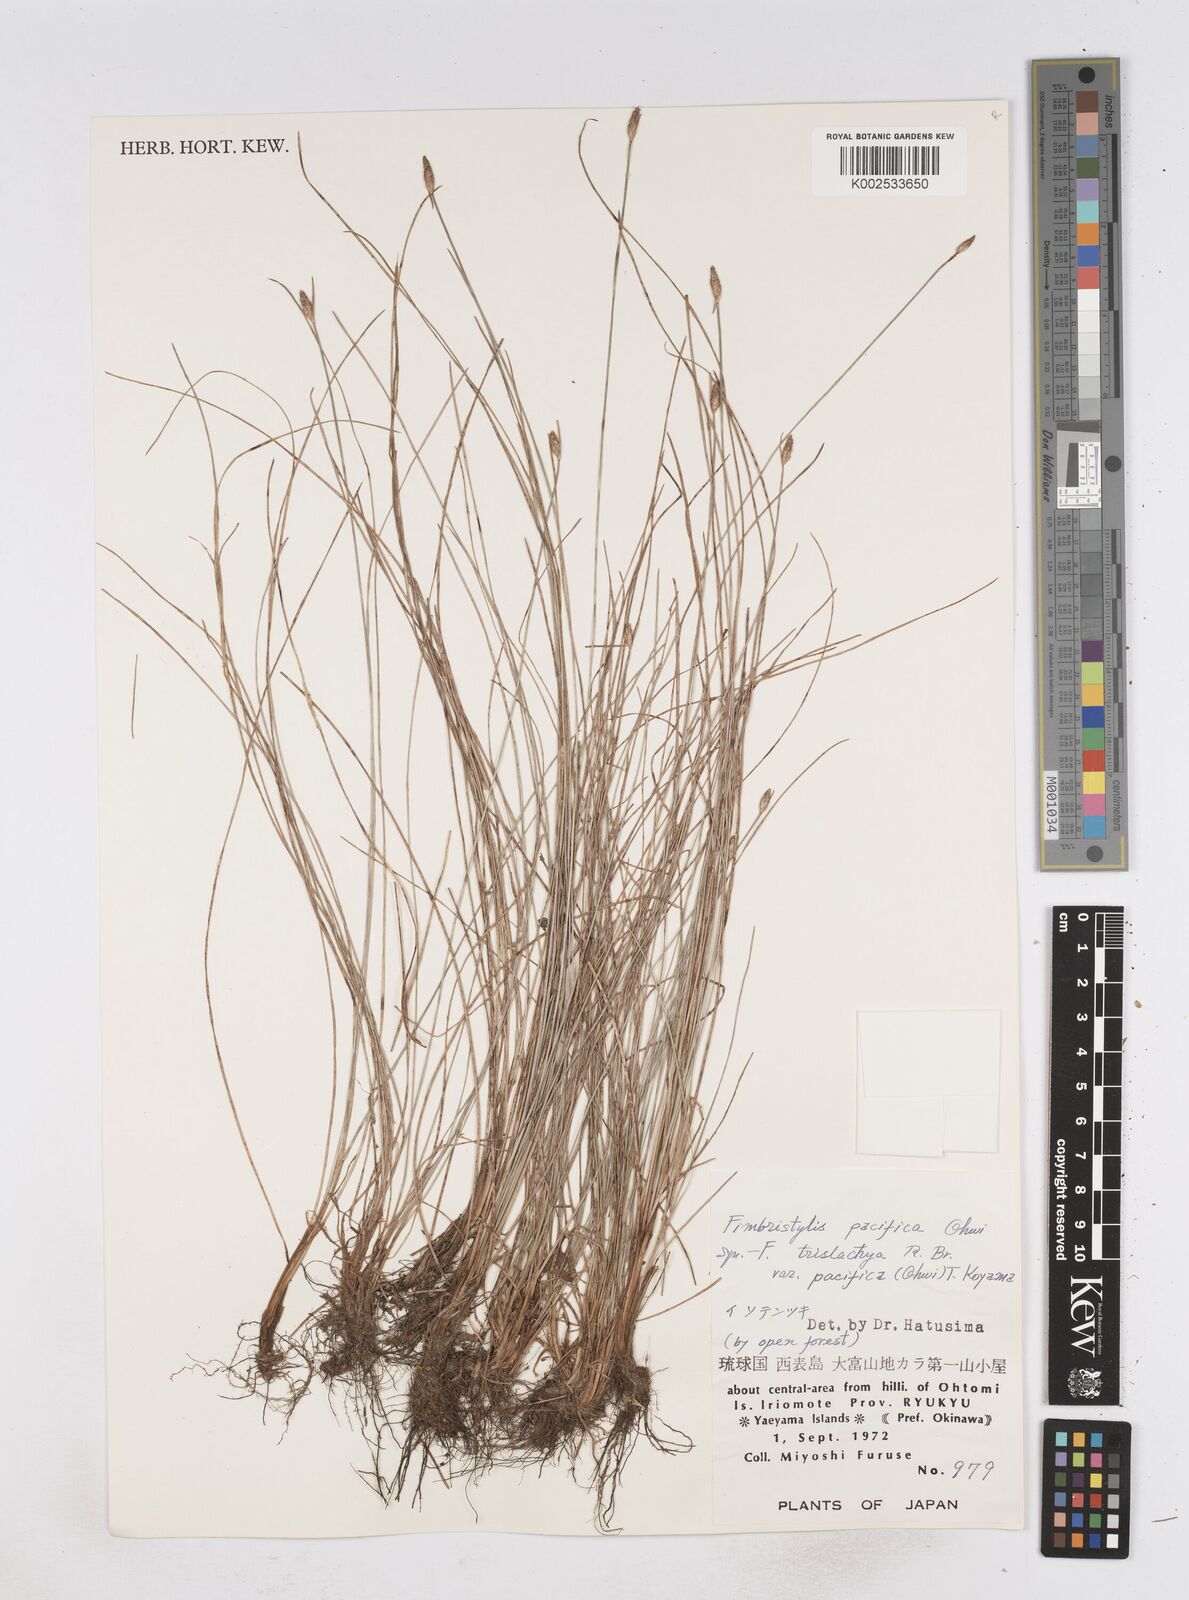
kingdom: Plantae
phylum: Tracheophyta
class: Liliopsida
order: Poales
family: Cyperaceae
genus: Fimbristylis
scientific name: Fimbristylis tristachya
